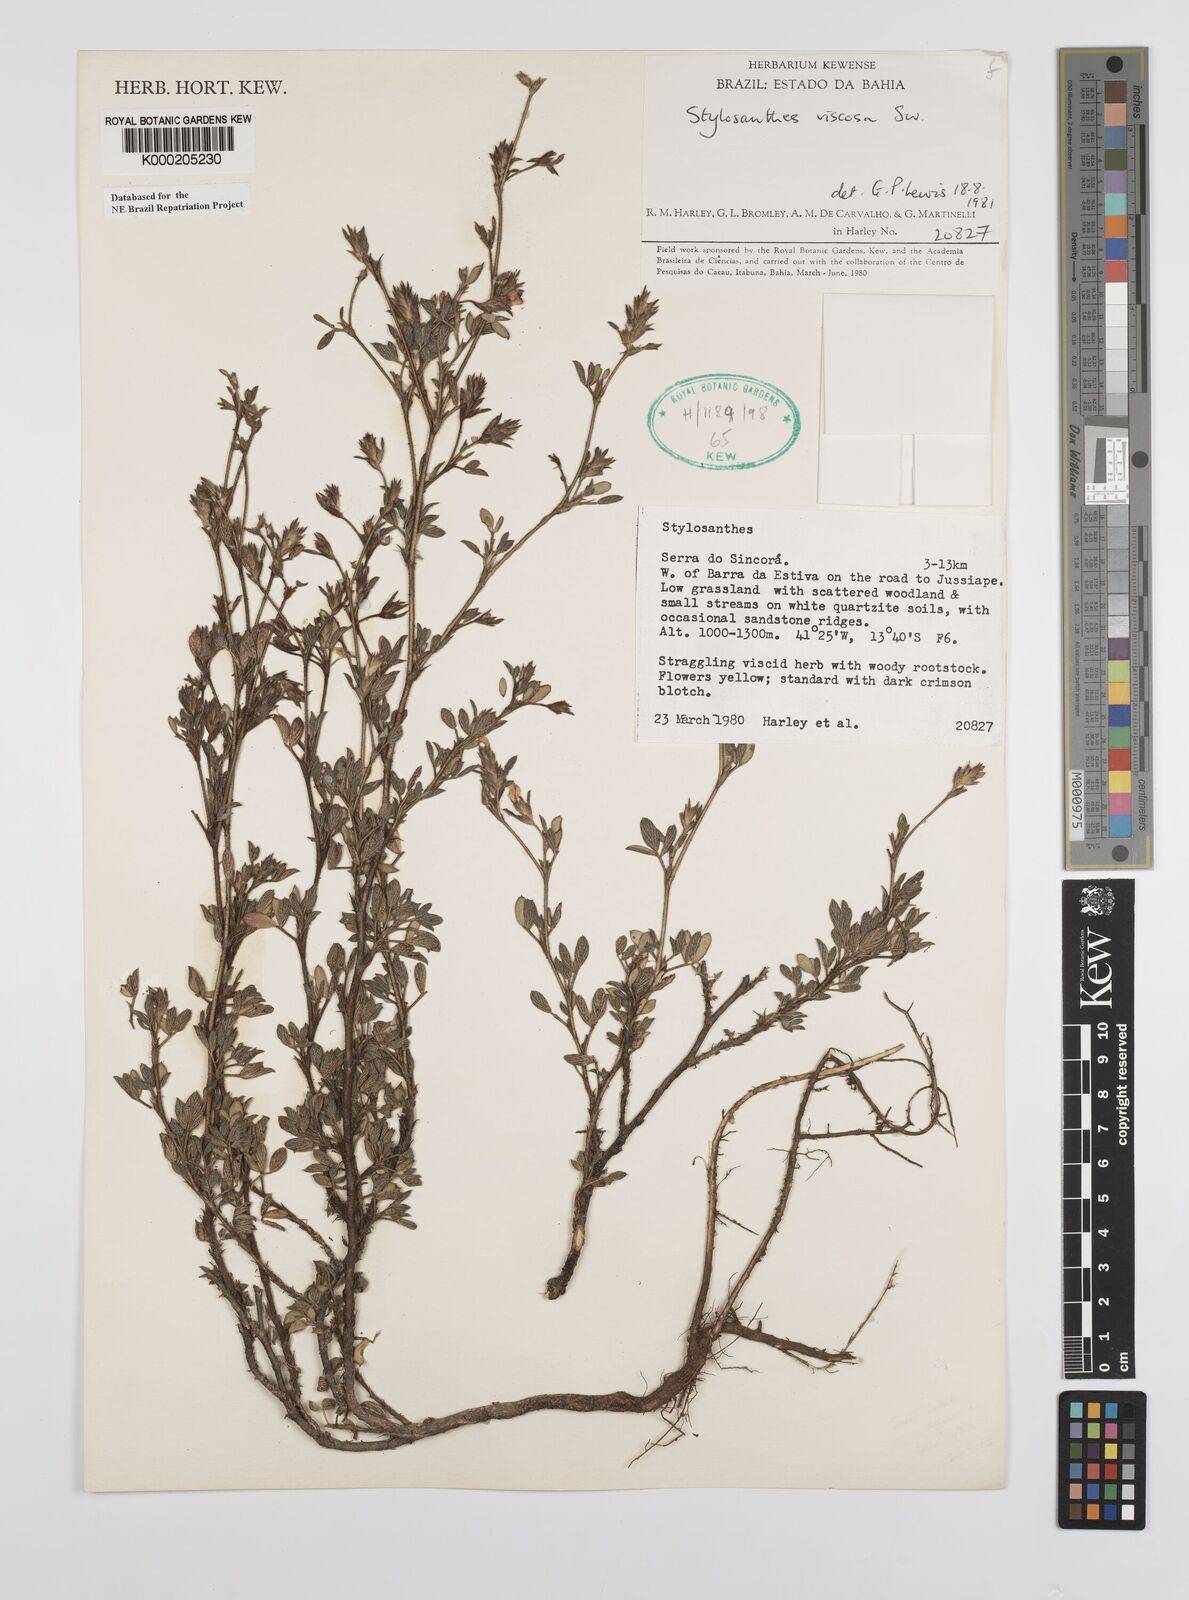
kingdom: Plantae
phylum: Tracheophyta
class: Magnoliopsida
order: Fabales
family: Fabaceae
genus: Stylosanthes
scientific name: Stylosanthes viscosa
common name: Viscid pencil-flower
